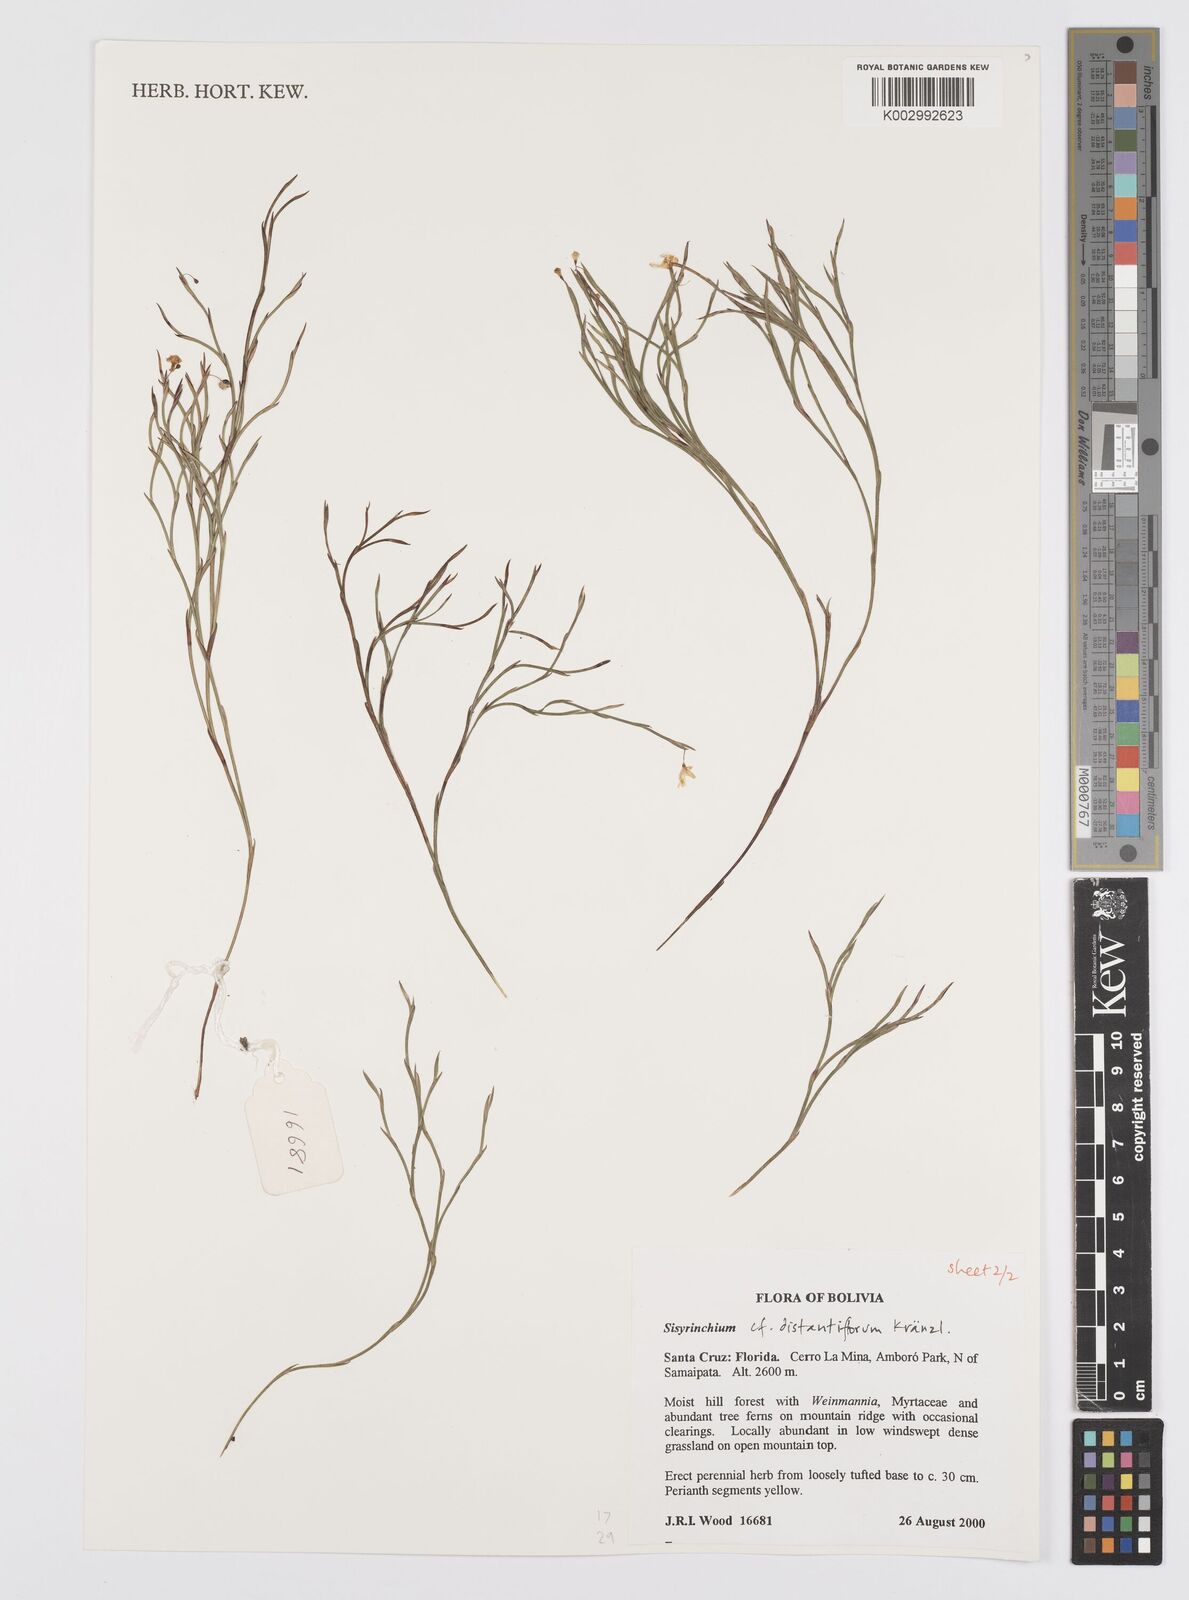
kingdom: Plantae
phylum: Tracheophyta
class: Liliopsida
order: Asparagales
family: Iridaceae
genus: Sisyrinchium
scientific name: Sisyrinchium vaginatum
